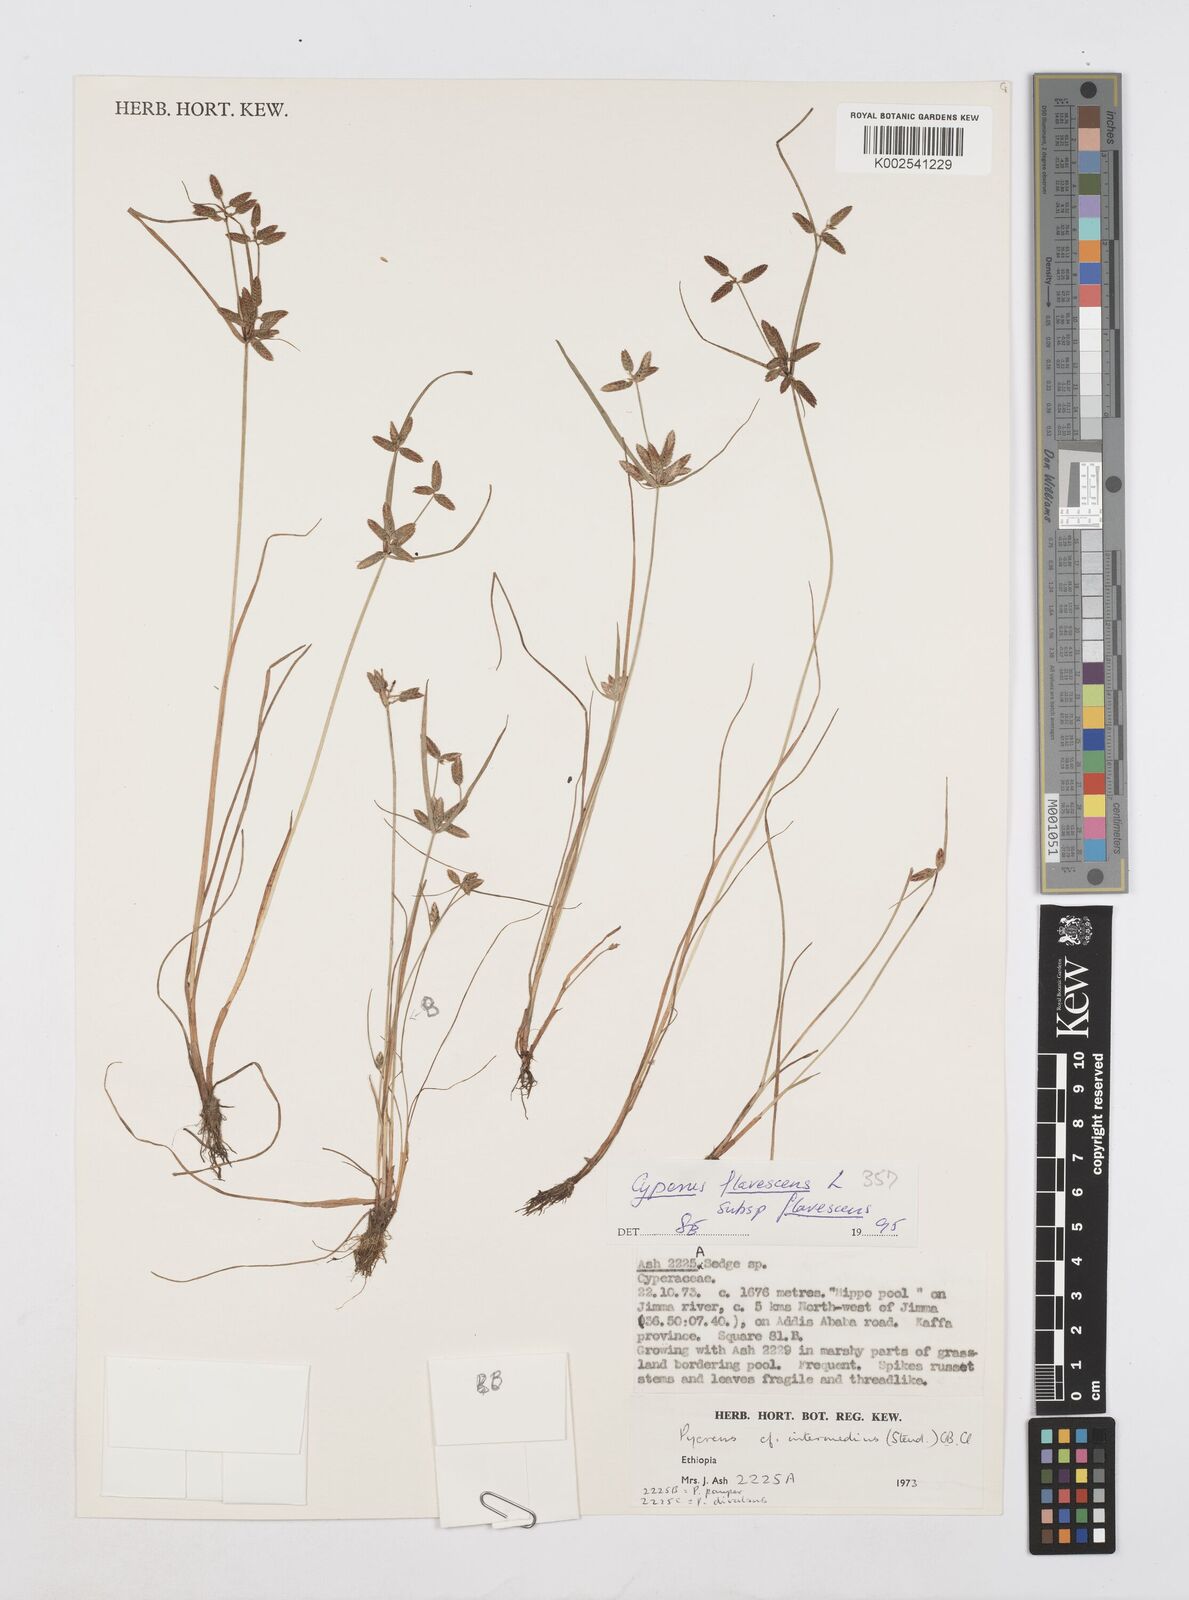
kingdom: Plantae
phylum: Tracheophyta
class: Liliopsida
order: Poales
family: Cyperaceae
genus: Cyperus
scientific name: Cyperus flavescens
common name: Yellow galingale
